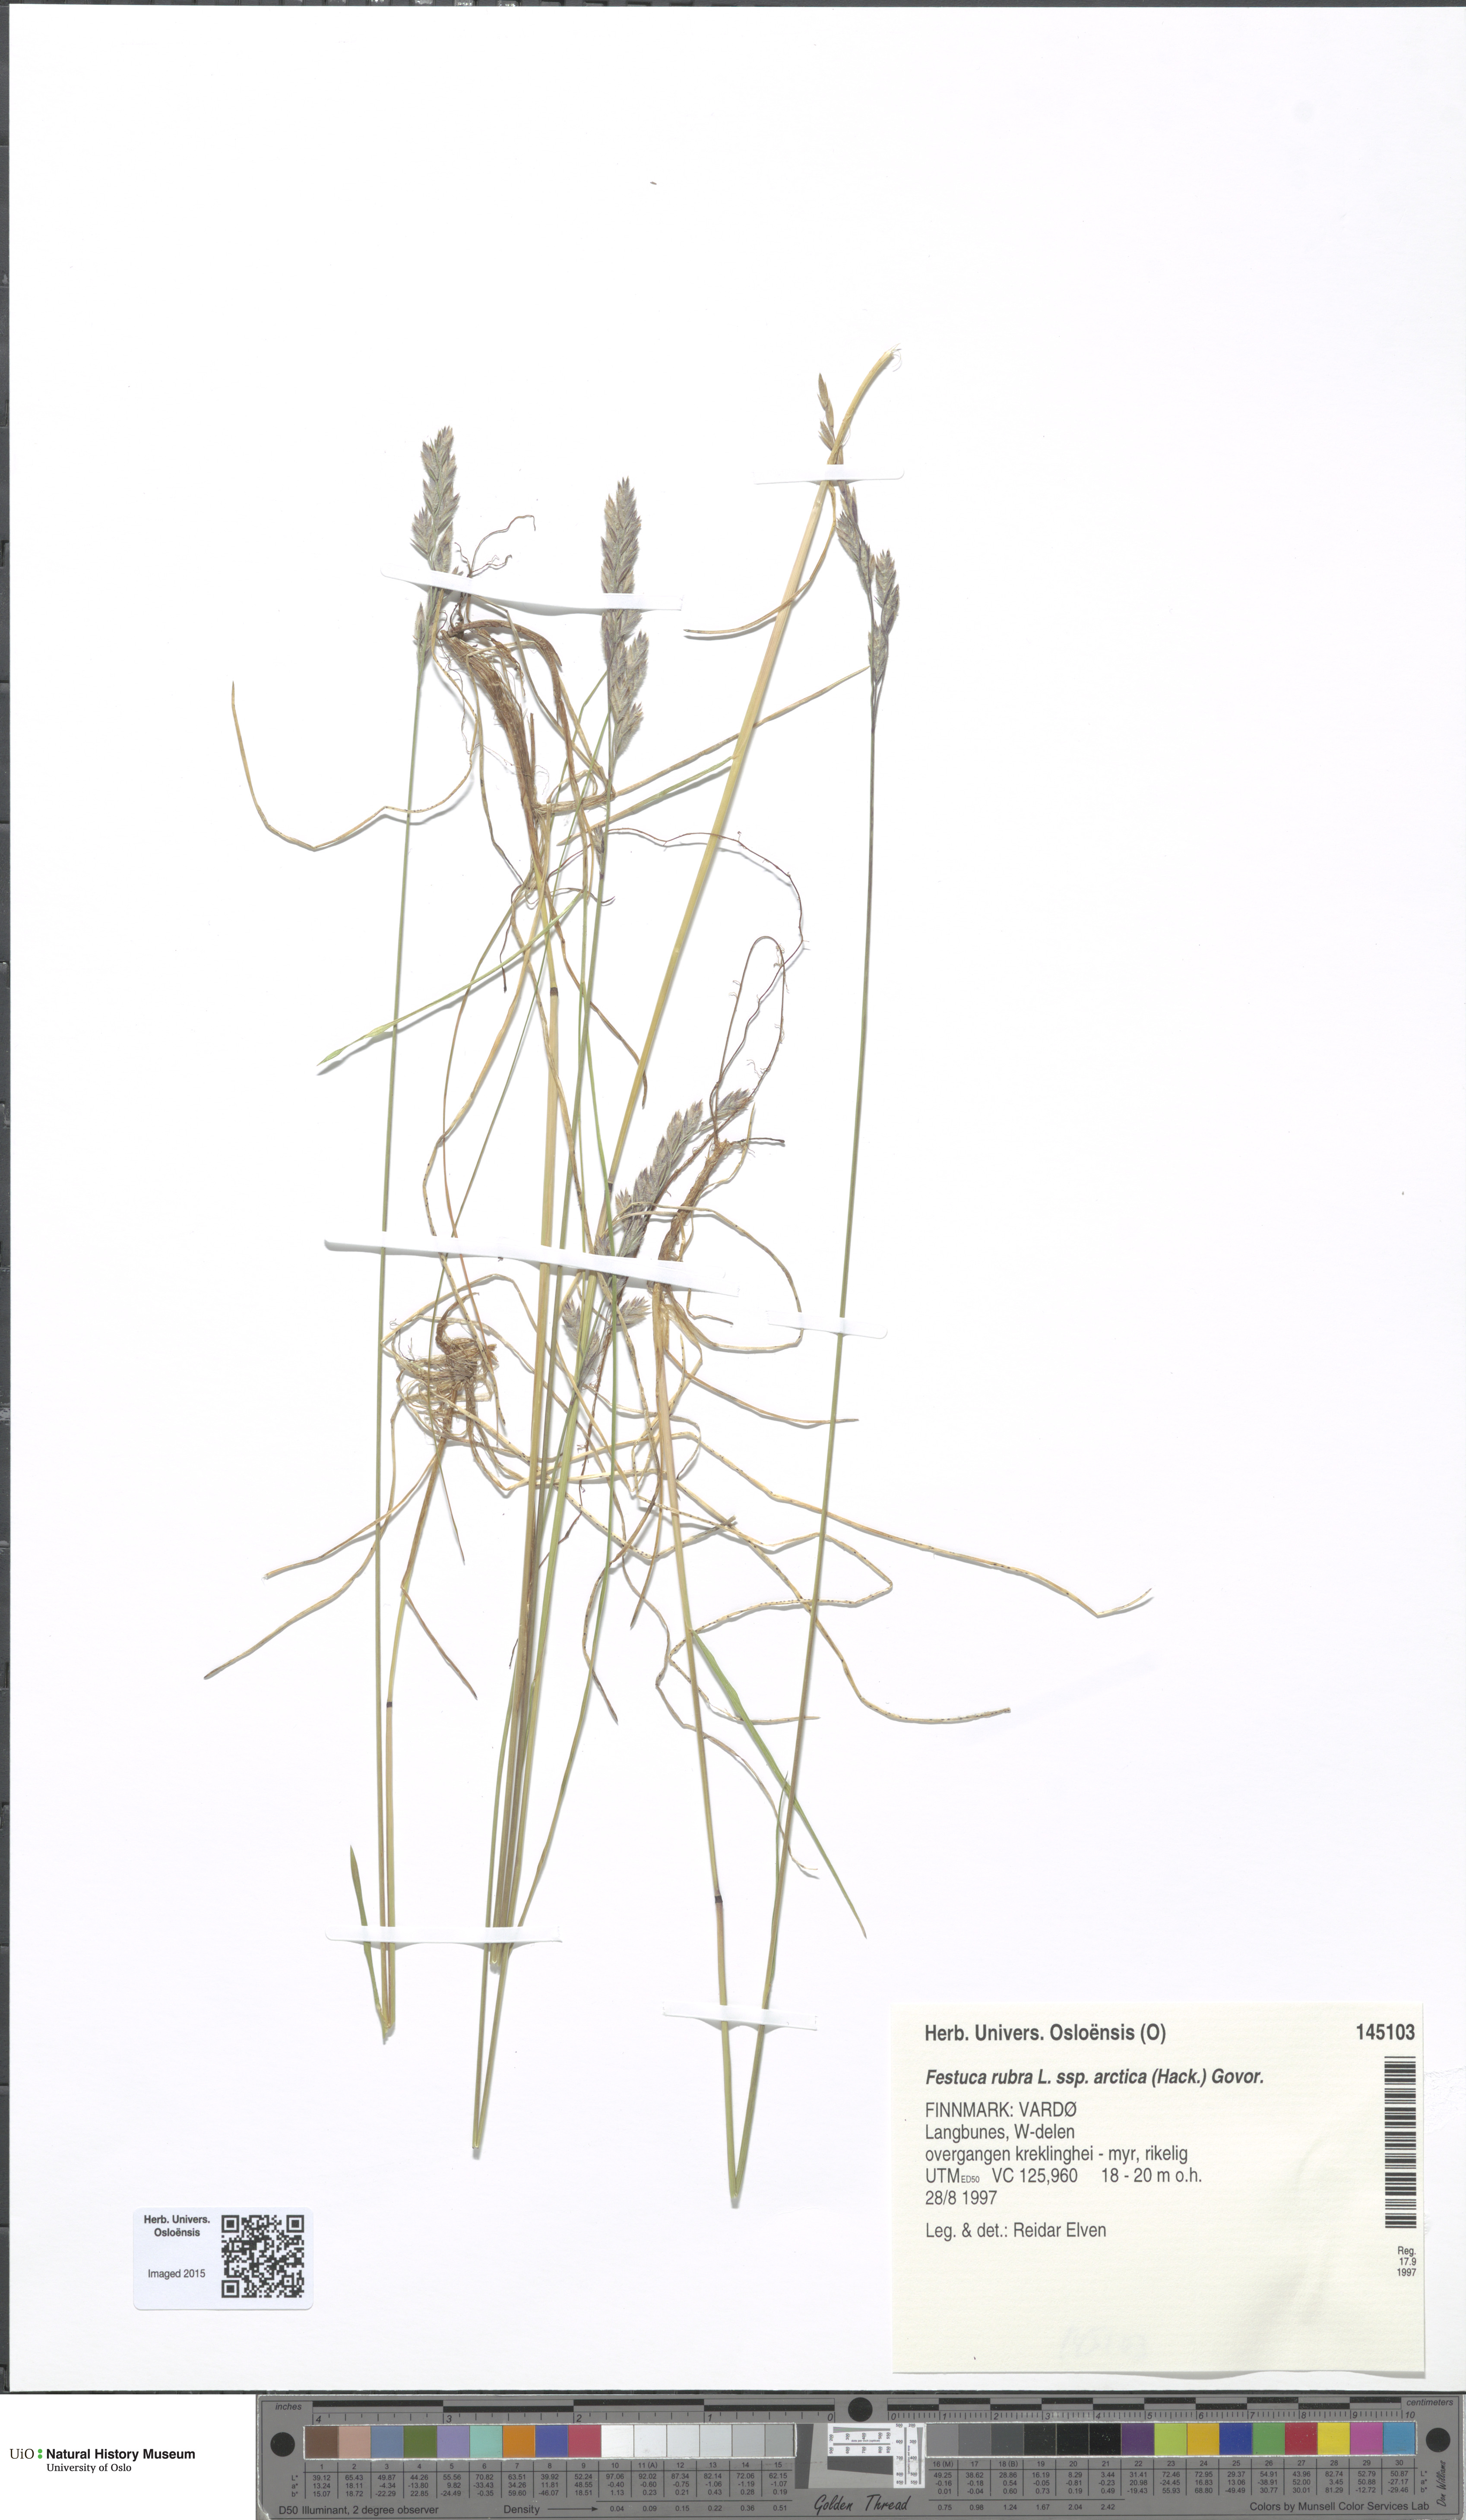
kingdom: Plantae
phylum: Tracheophyta
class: Liliopsida
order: Poales
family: Poaceae
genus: Festuca
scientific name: Festuca richardsonii
